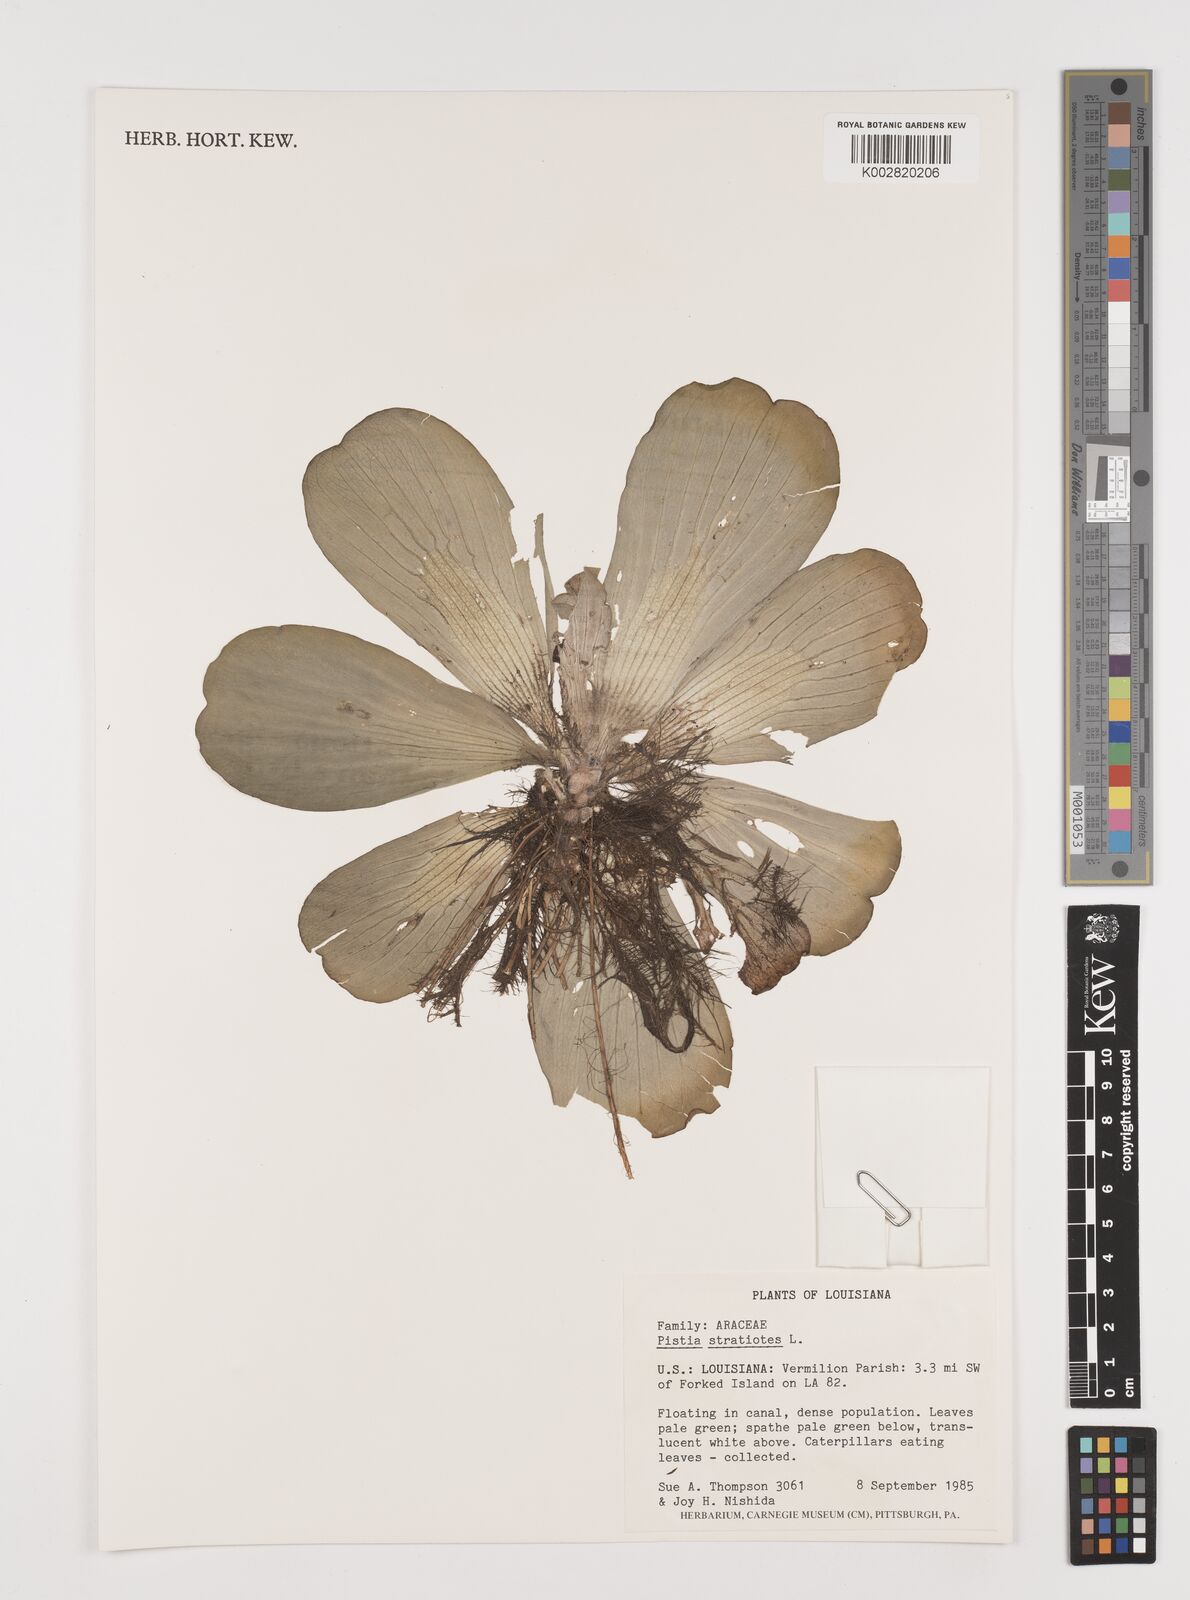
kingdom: Plantae
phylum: Tracheophyta
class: Liliopsida
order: Alismatales
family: Araceae
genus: Pistia
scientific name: Pistia stratiotes
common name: Water lettuce
